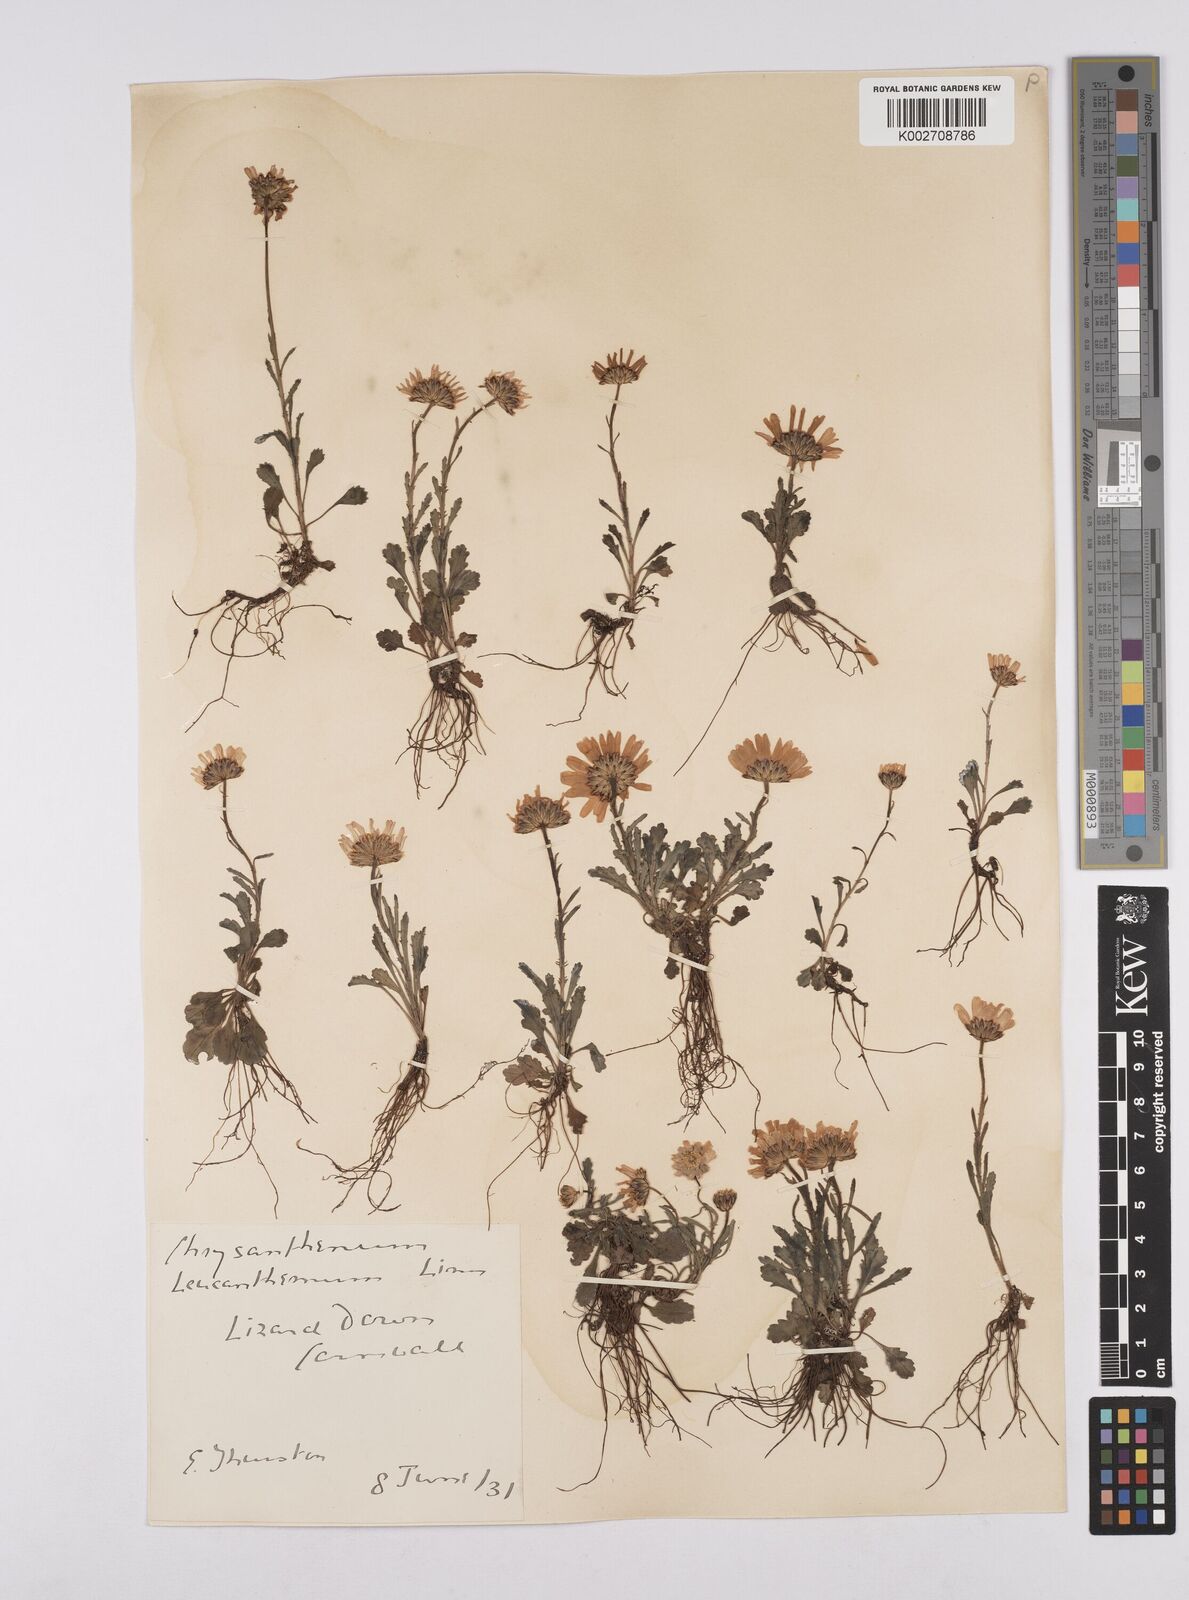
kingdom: Plantae
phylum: Tracheophyta
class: Magnoliopsida
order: Asterales
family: Asteraceae
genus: Leucanthemum
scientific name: Leucanthemum vulgare
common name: Oxeye daisy
